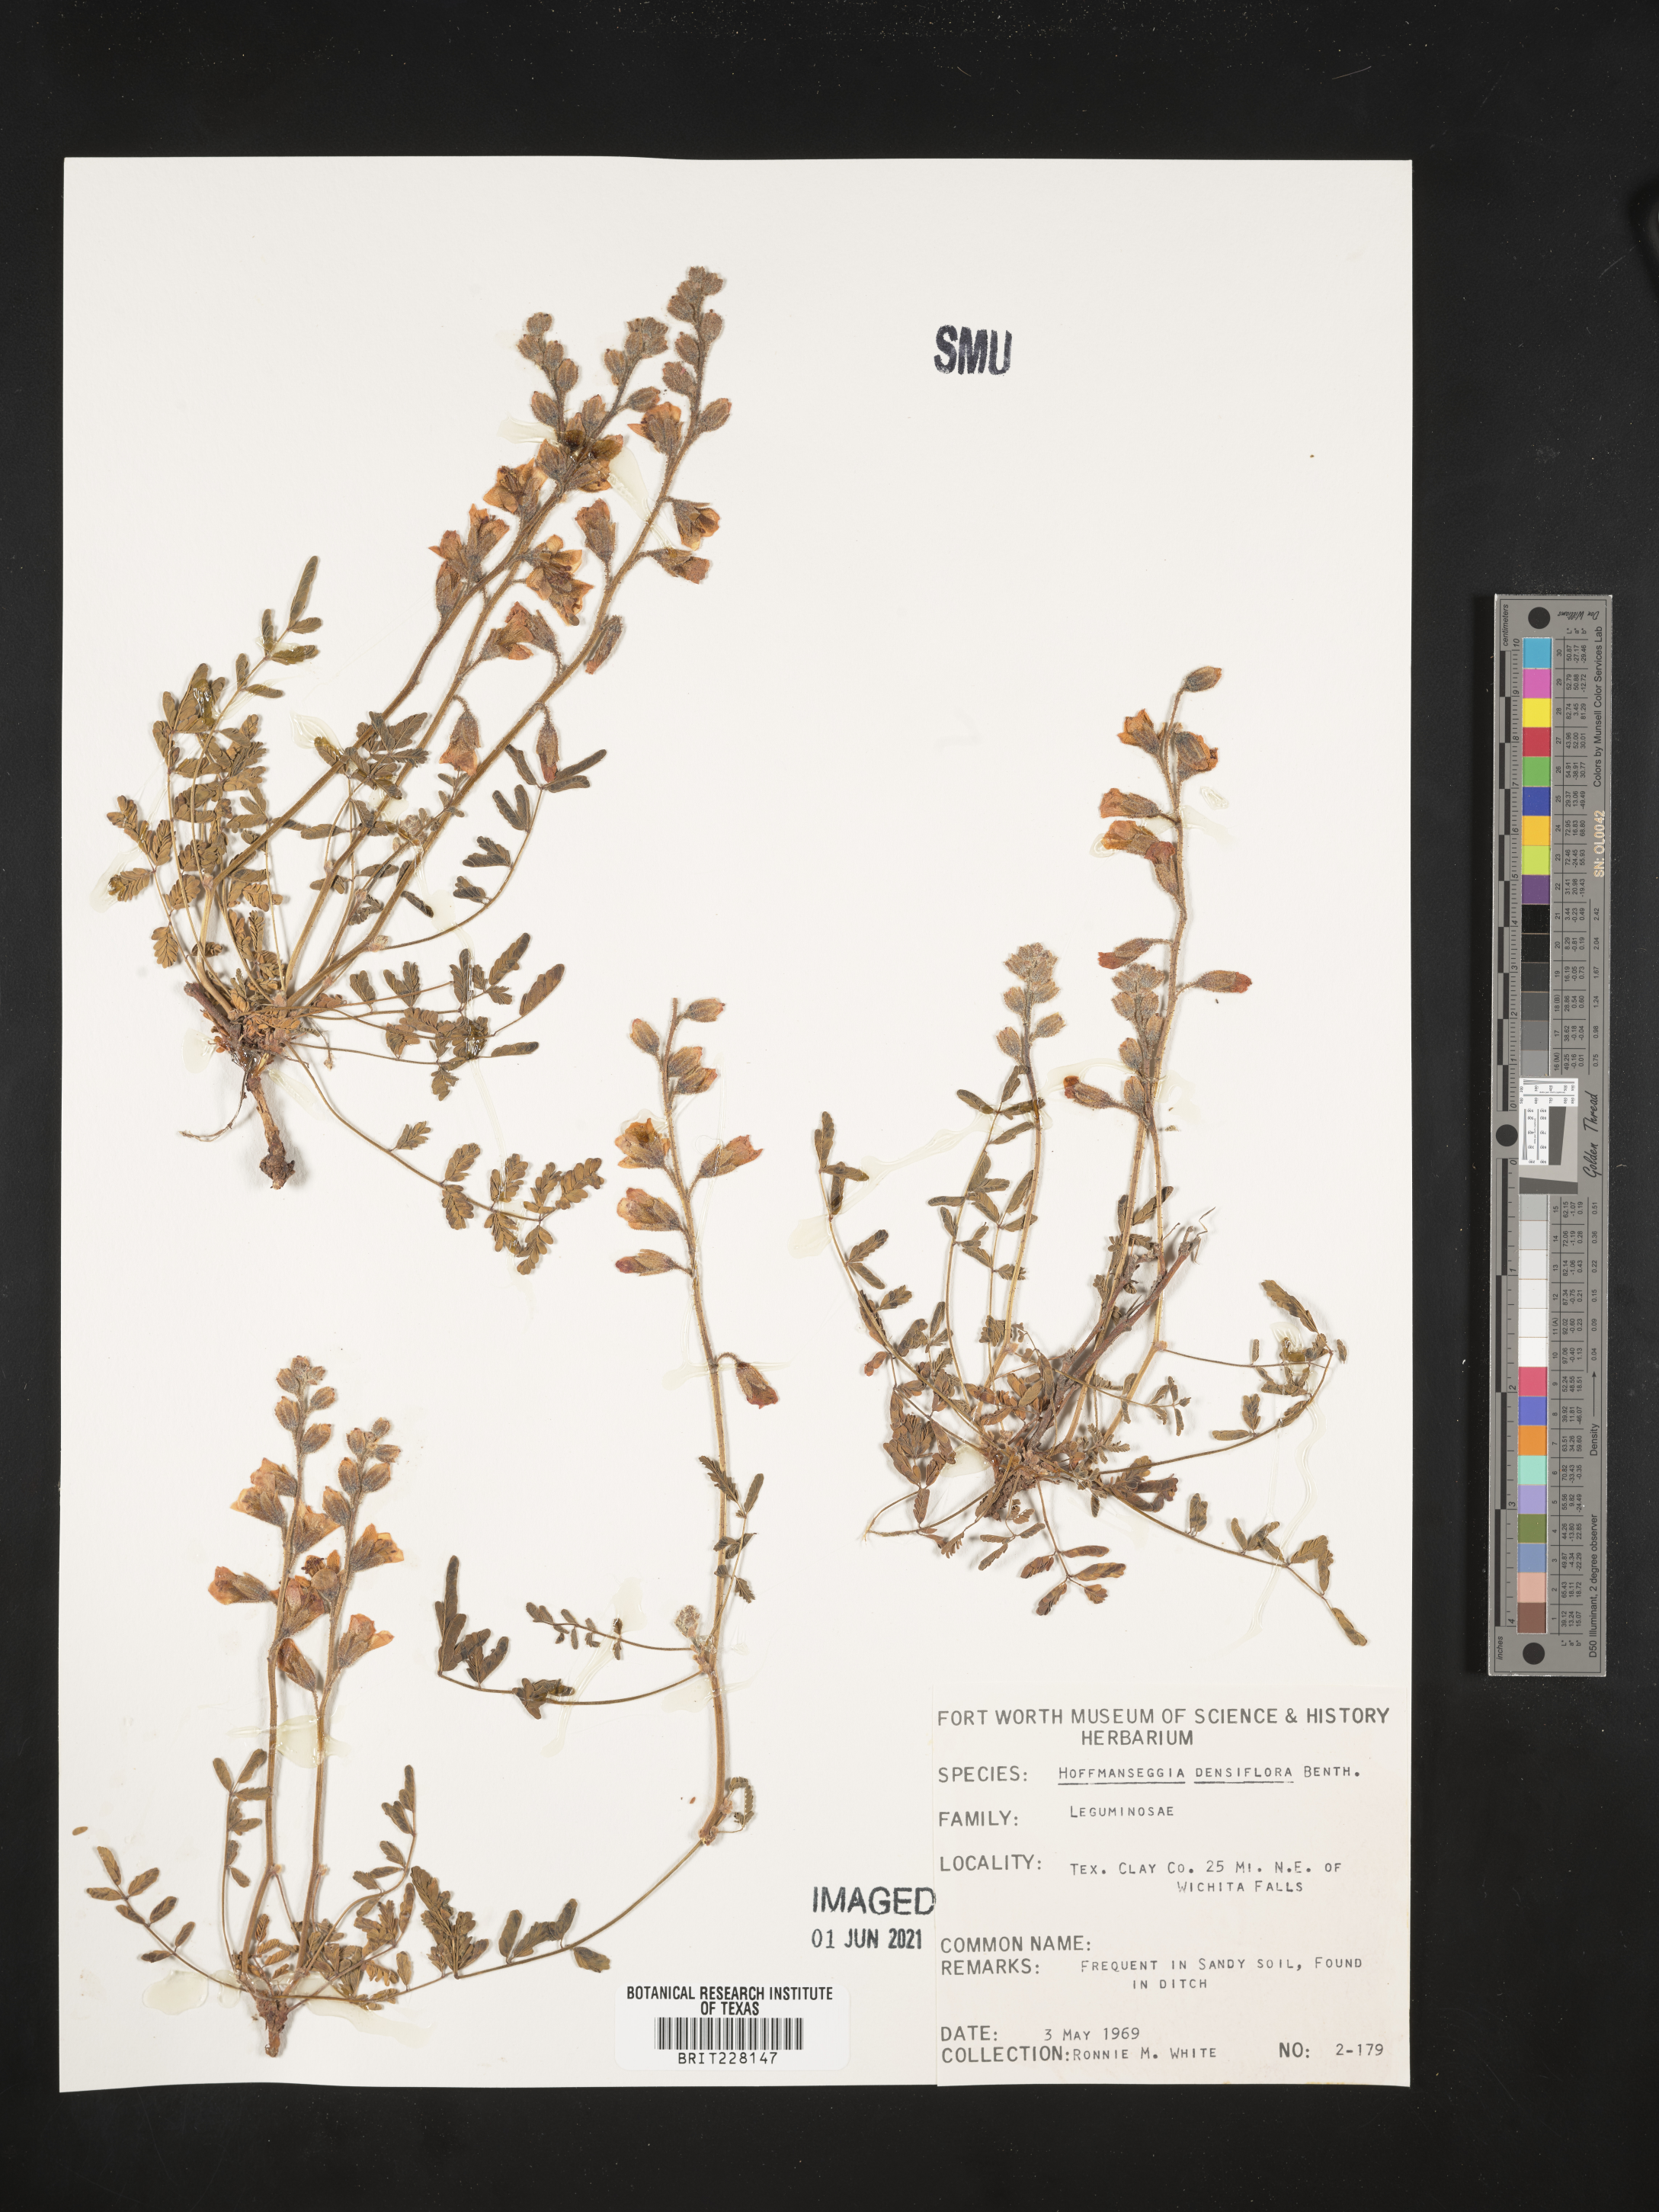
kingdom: Plantae
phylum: Tracheophyta
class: Magnoliopsida
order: Fabales
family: Fabaceae
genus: Hoffmannseggia
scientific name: Hoffmannseggia glauca
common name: Pignut
